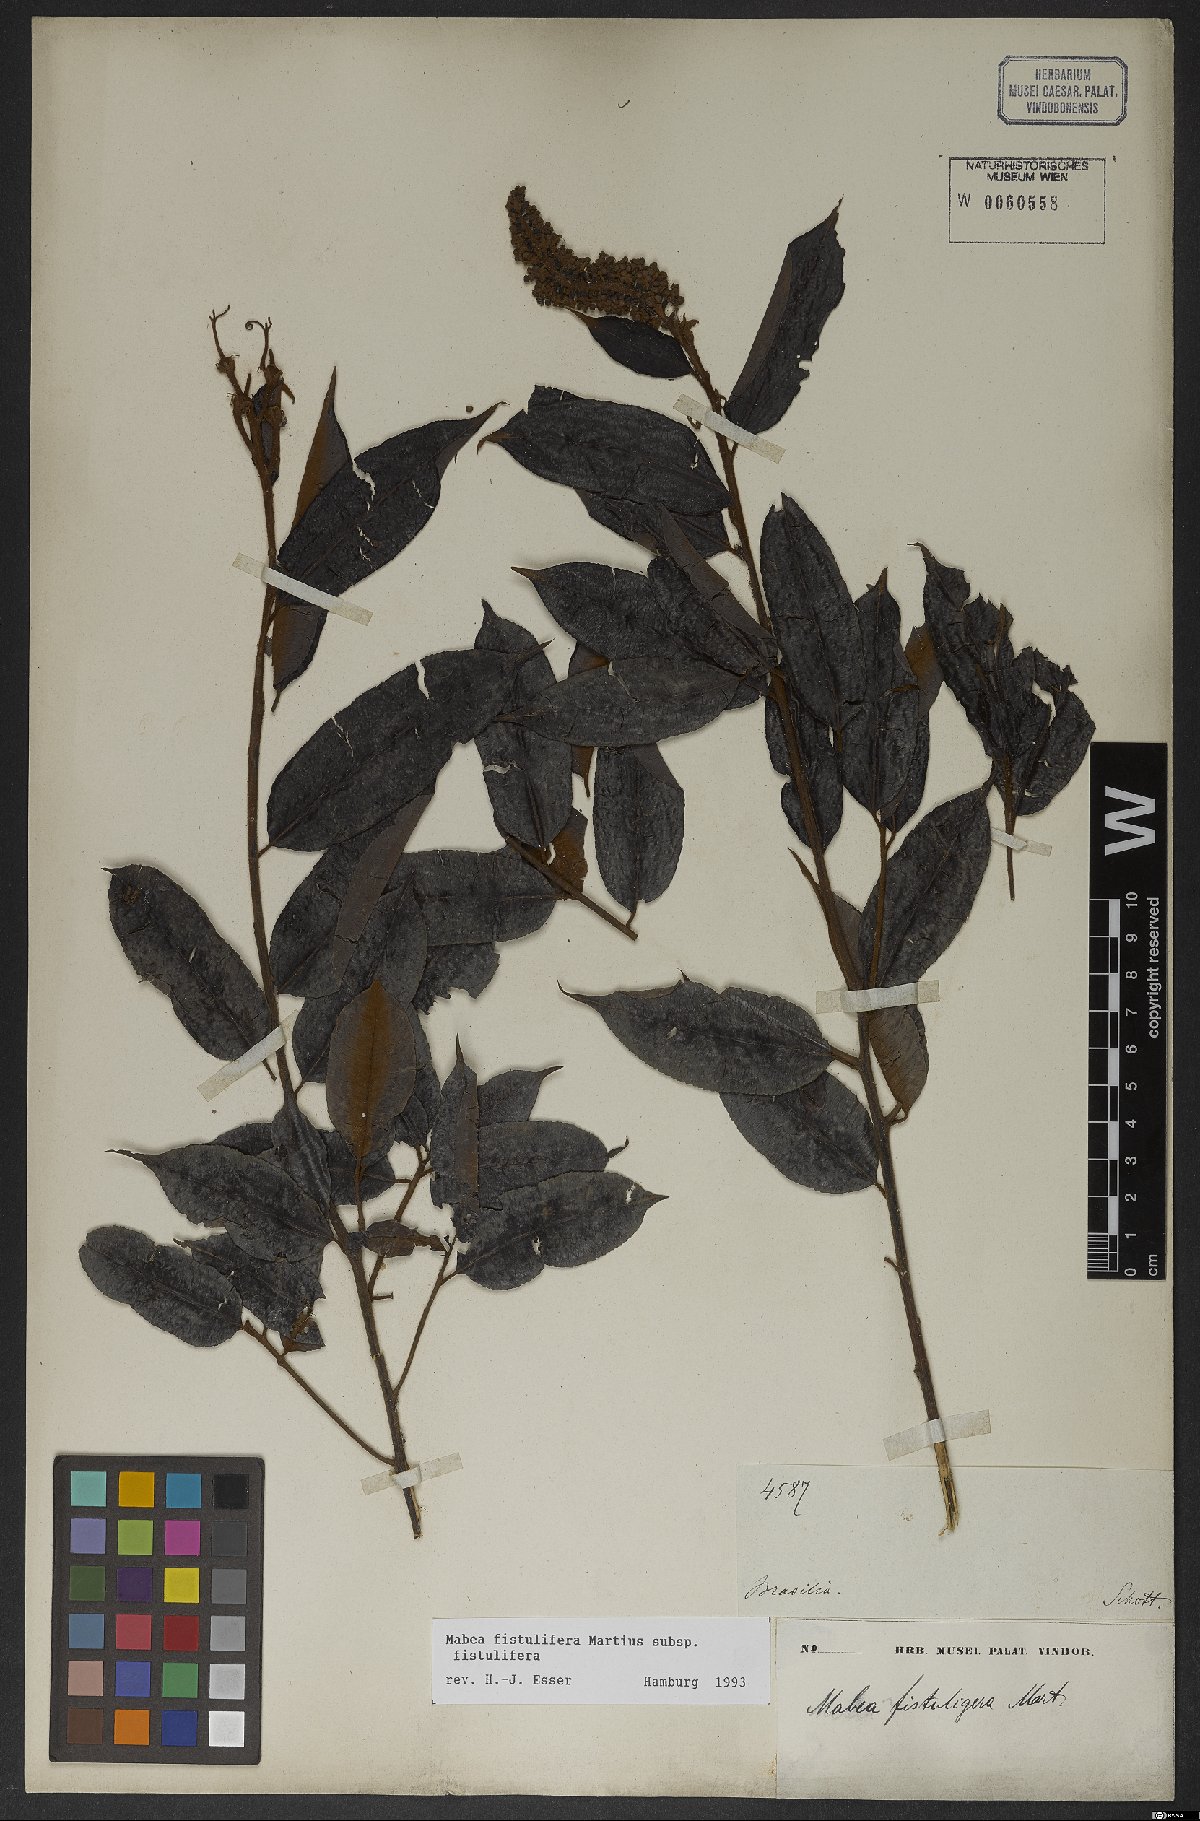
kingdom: Plantae
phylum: Tracheophyta
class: Magnoliopsida
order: Malpighiales
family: Euphorbiaceae
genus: Mabea
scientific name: Mabea fistulifera
